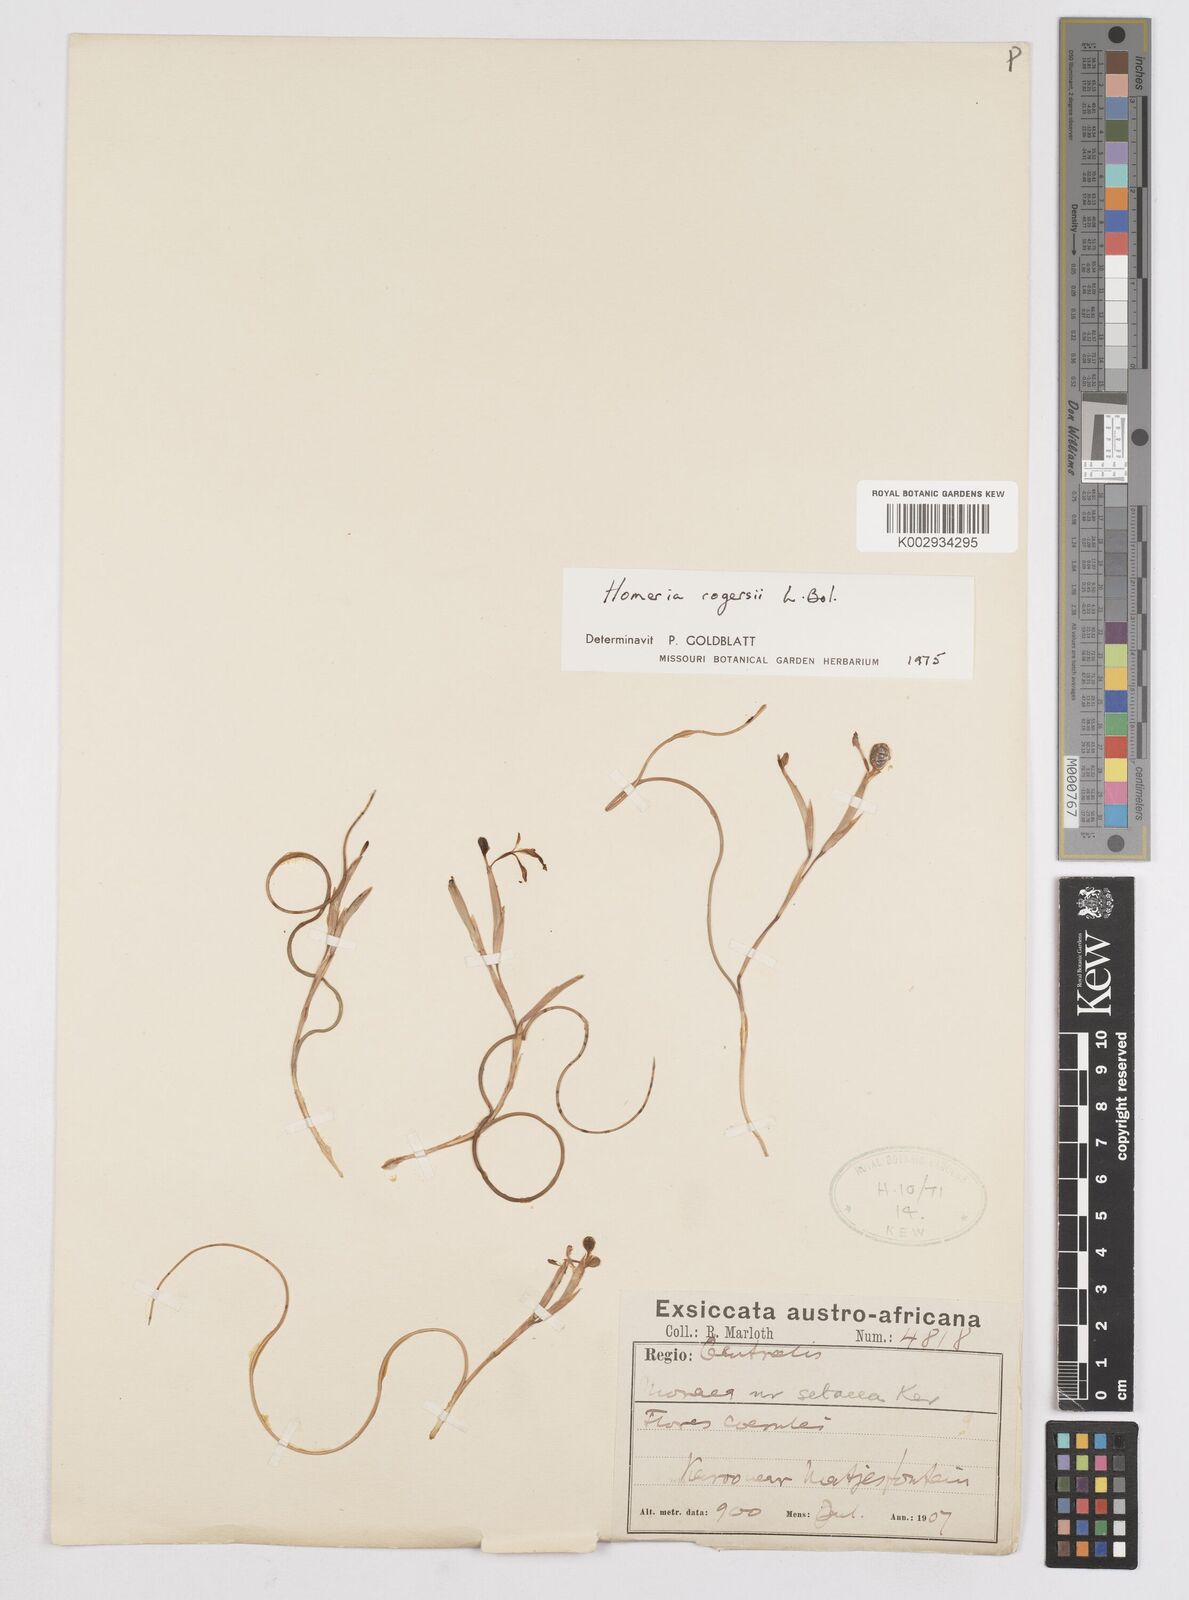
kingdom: Plantae
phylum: Tracheophyta
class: Liliopsida
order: Asparagales
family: Iridaceae
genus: Moraea
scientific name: Moraea crispa
